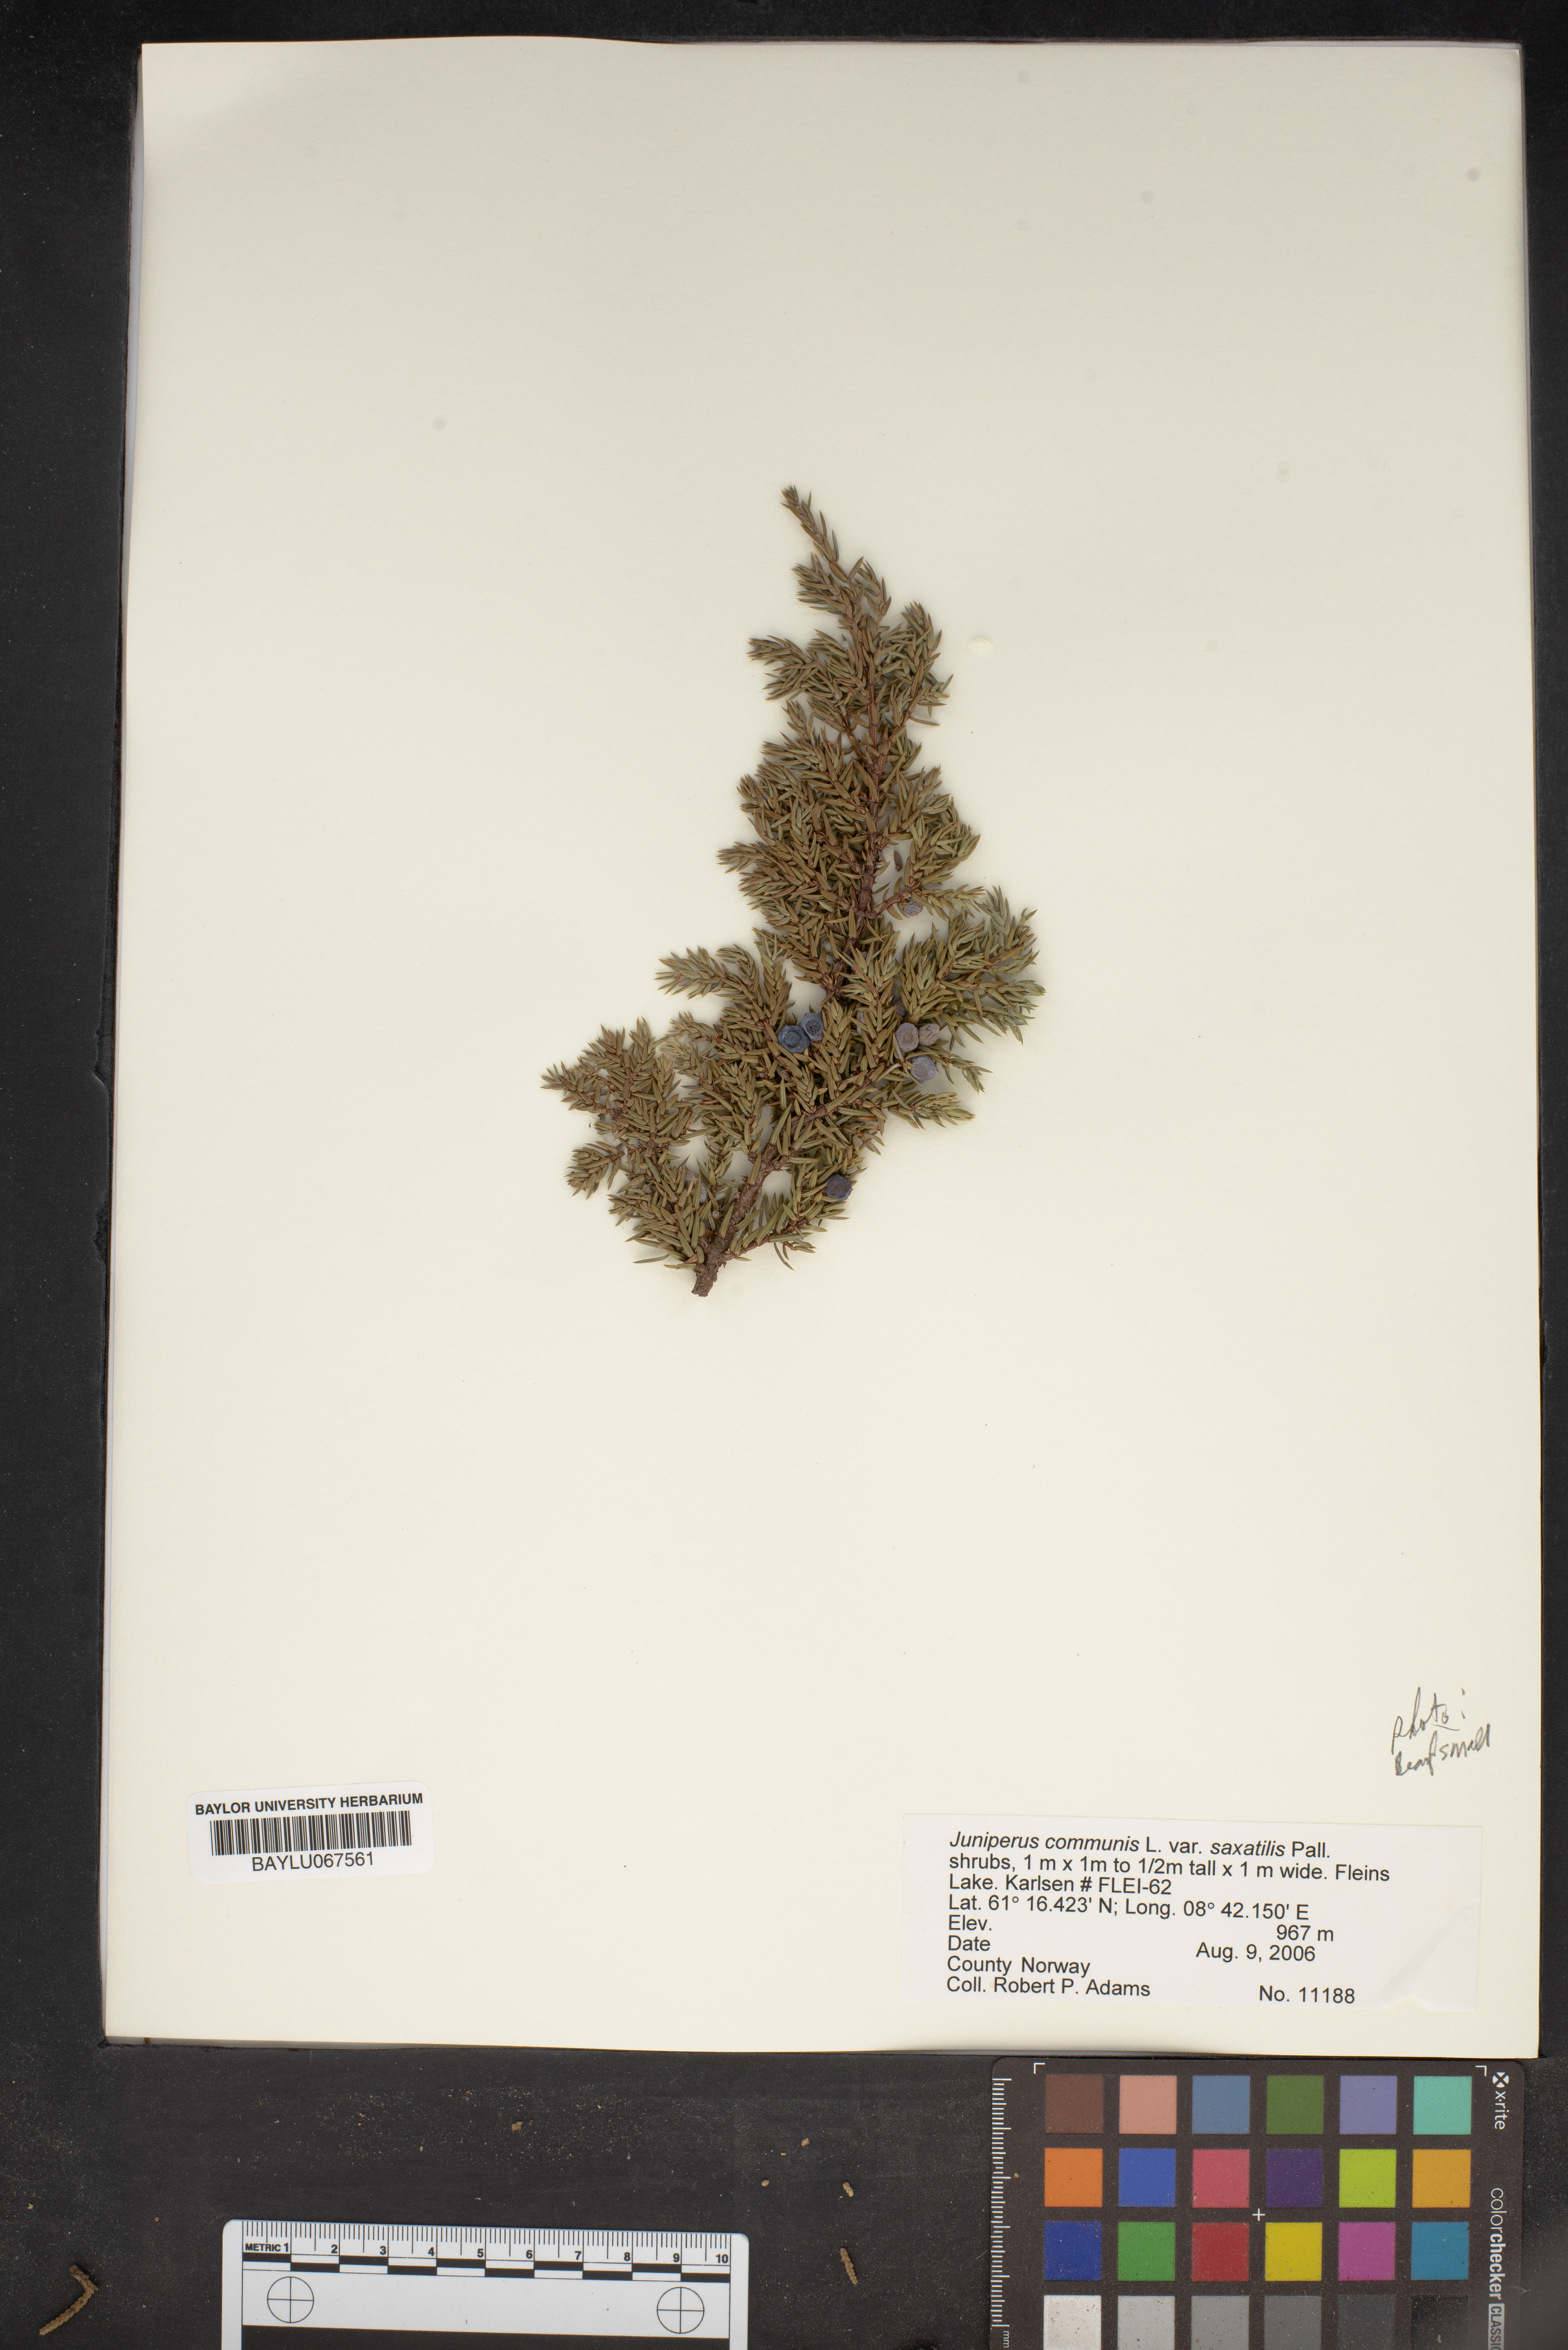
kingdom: Plantae
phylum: Tracheophyta
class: Pinopsida
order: Pinales
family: Cupressaceae
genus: Juniperus
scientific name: Juniperus communis
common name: Common juniper
